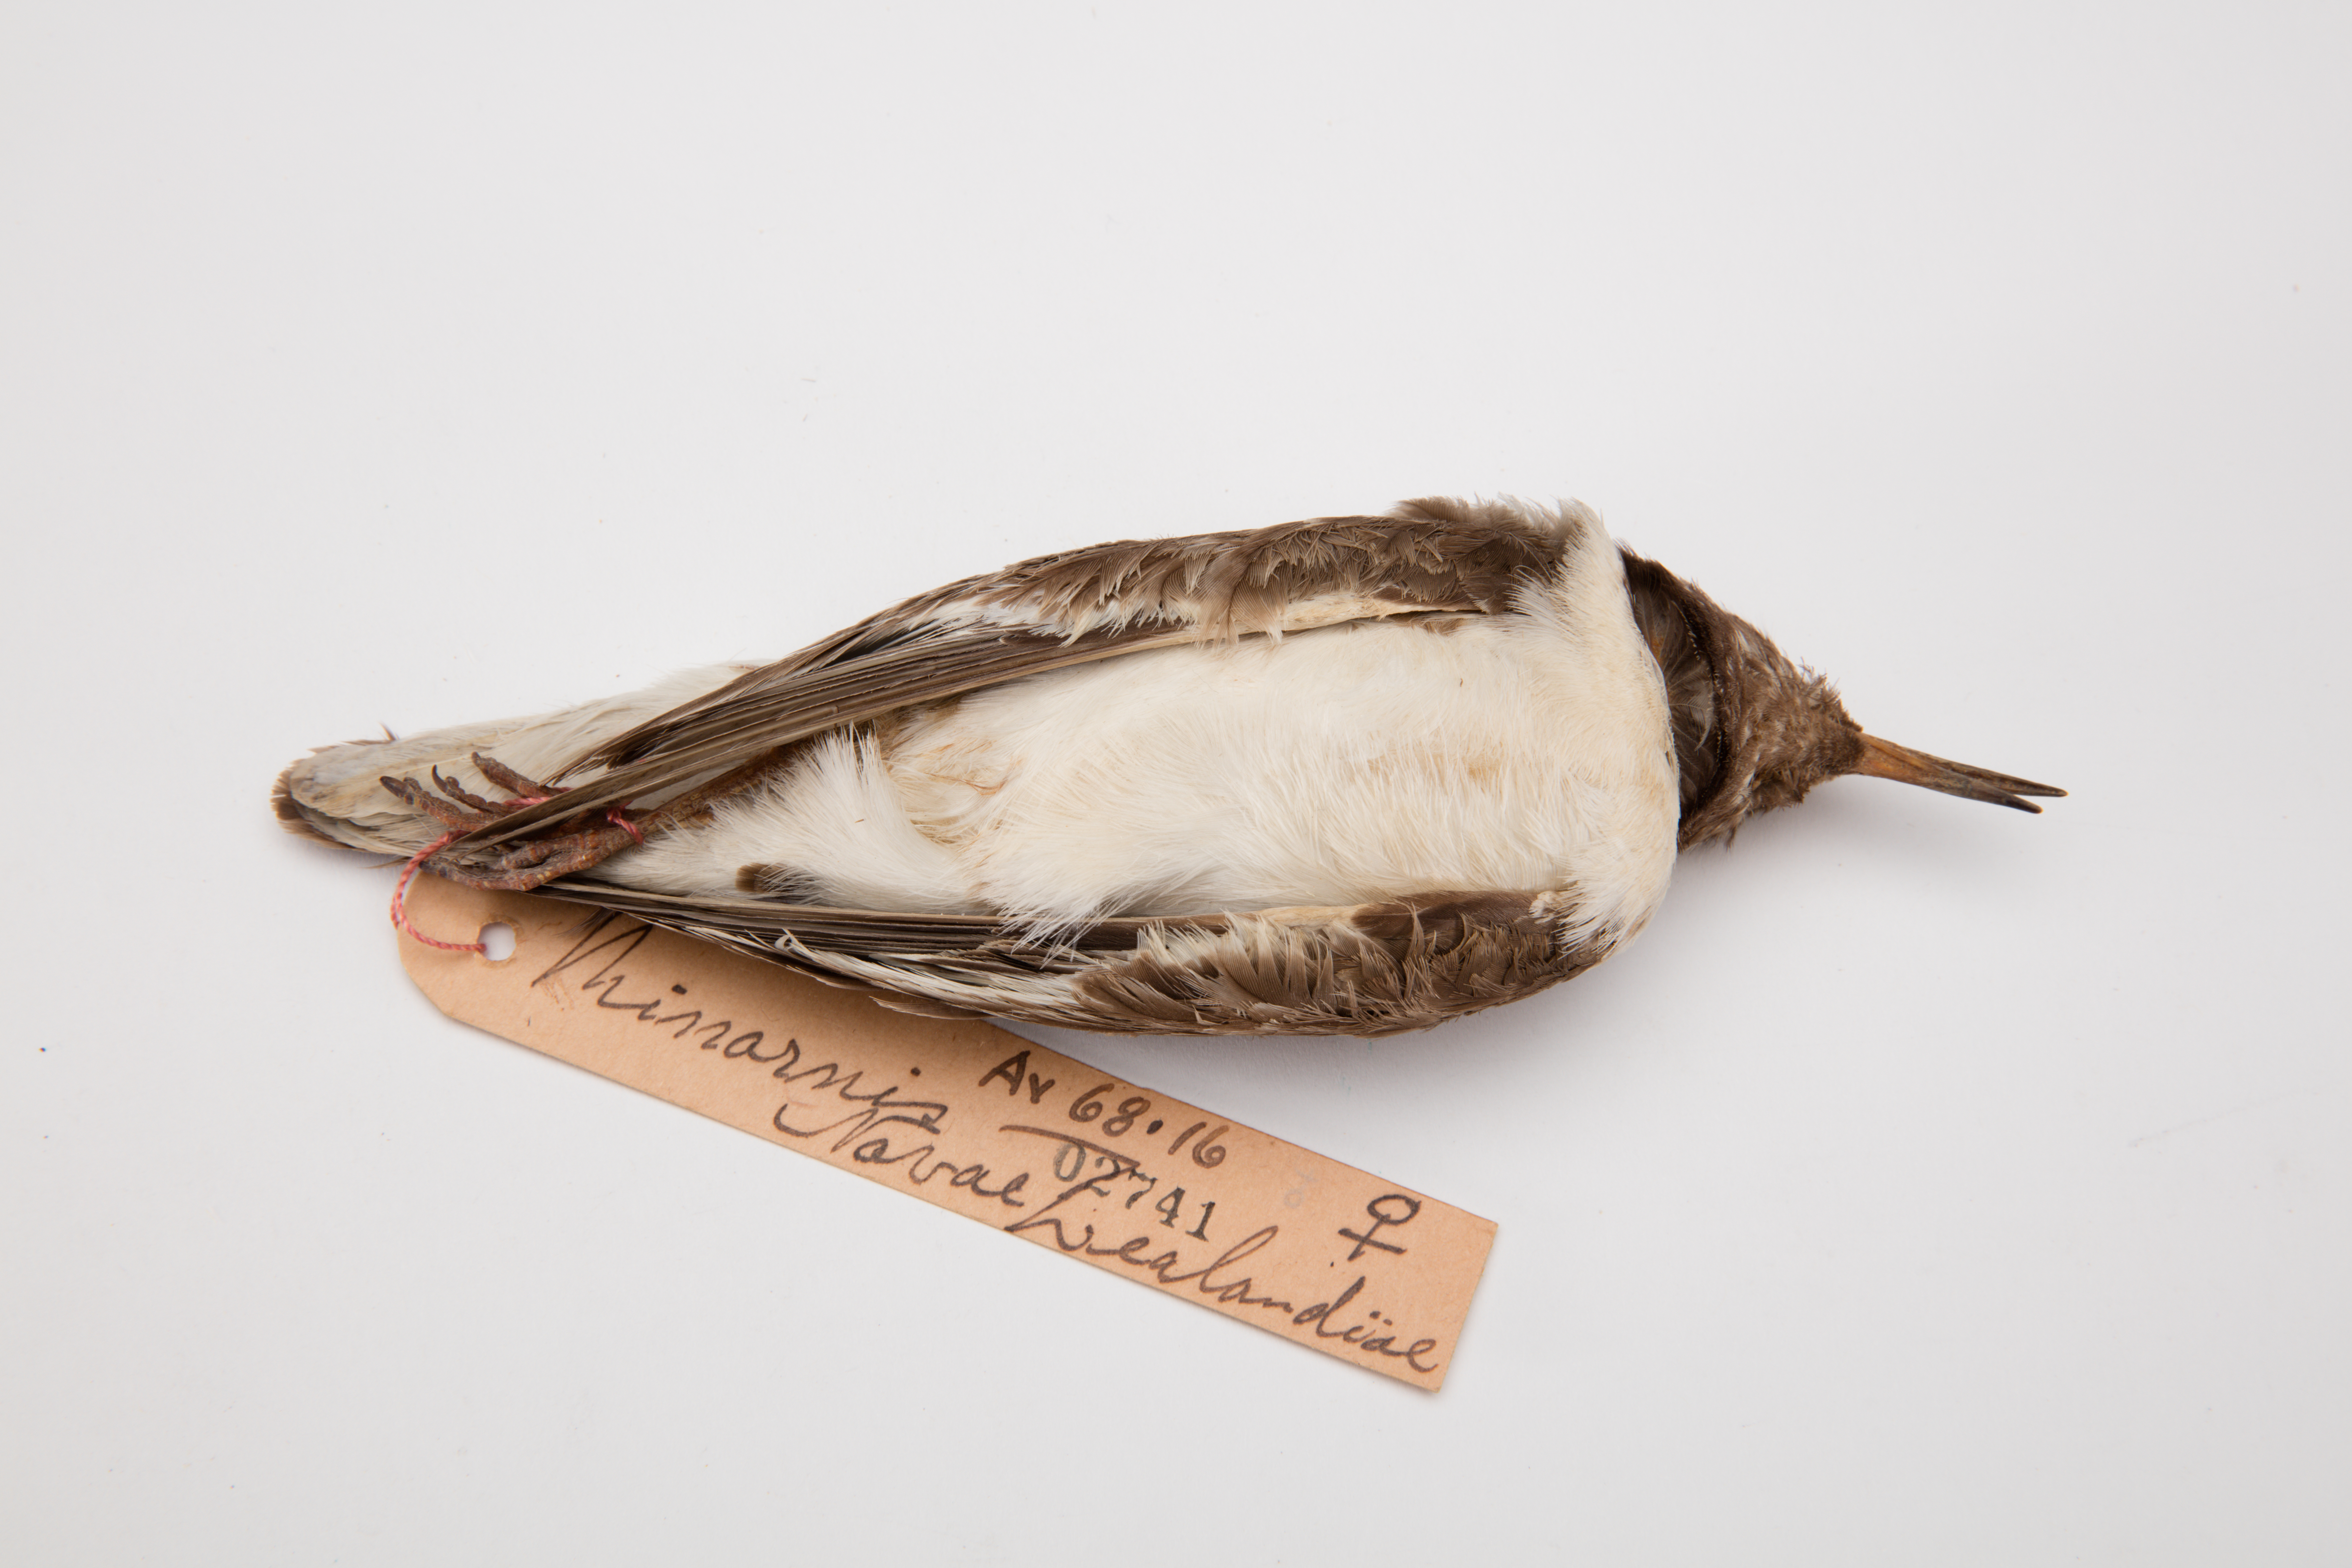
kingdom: Animalia
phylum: Chordata
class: Aves
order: Charadriiformes
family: Charadriidae
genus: Thinornis
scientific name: Thinornis novaeseelandiae
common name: Shore dotterel
